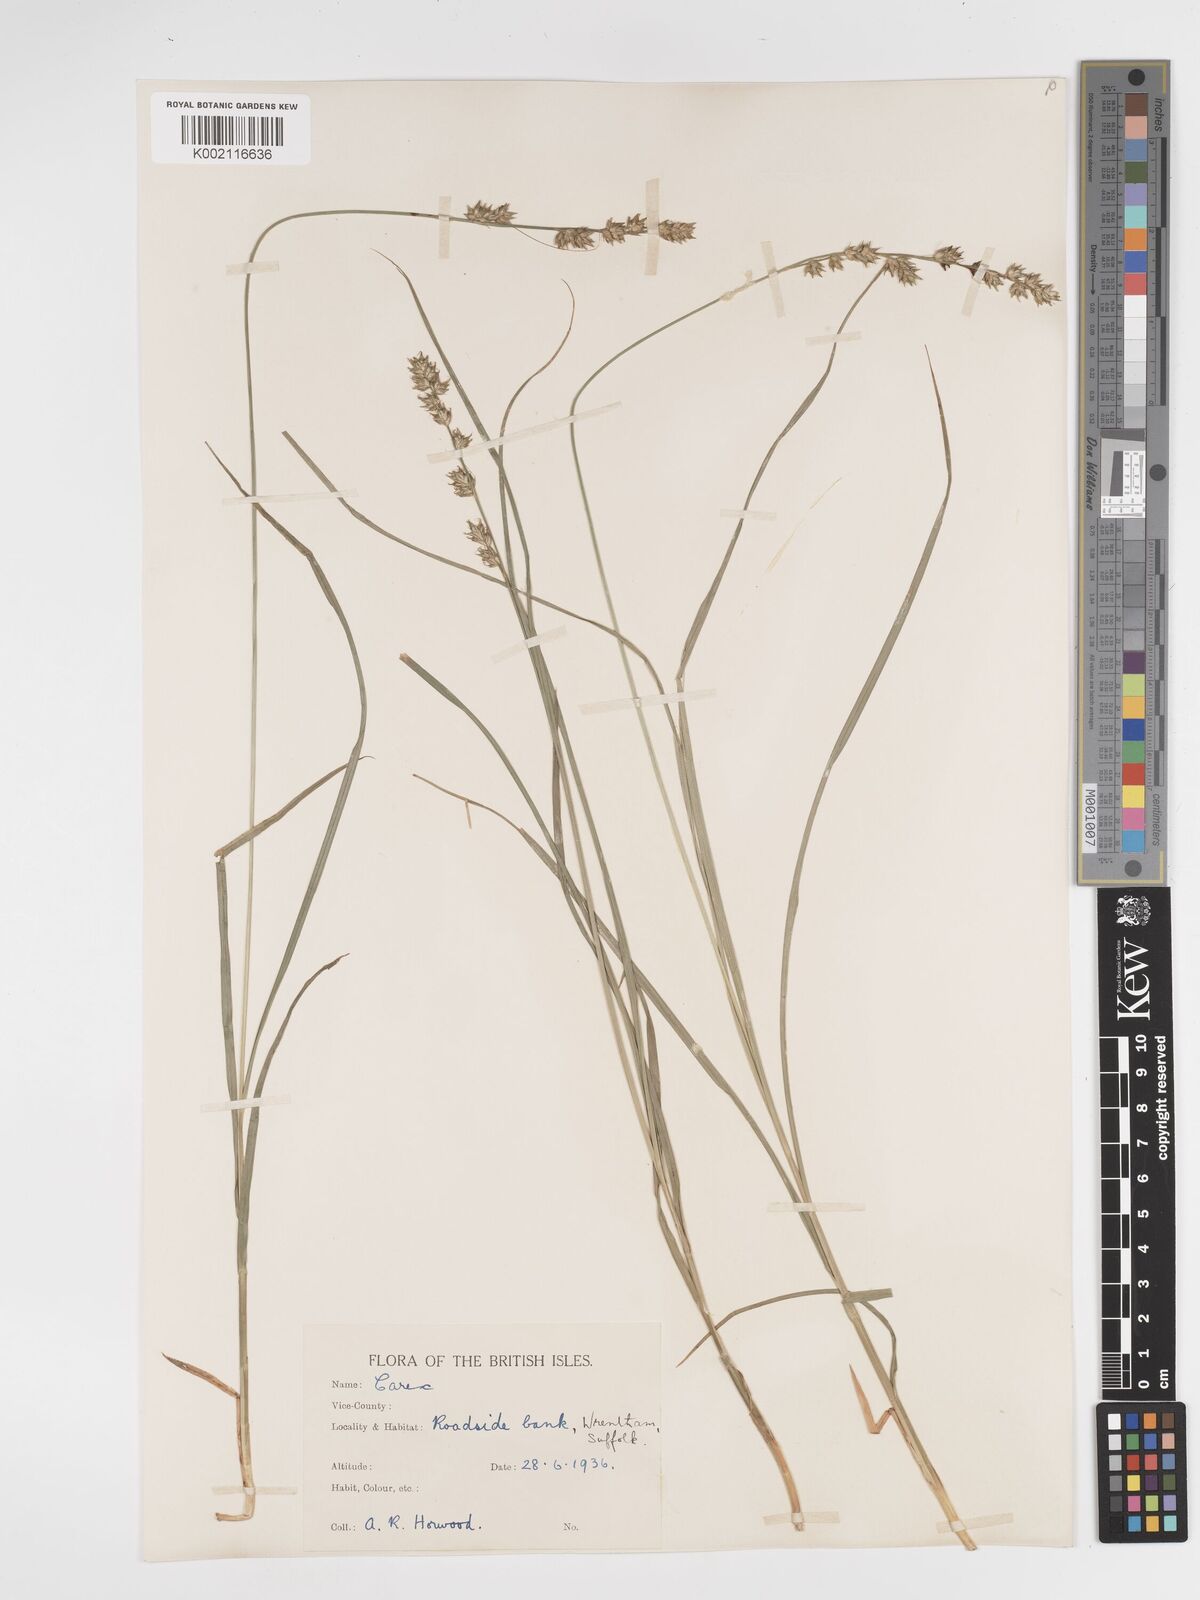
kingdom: Plantae
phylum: Tracheophyta
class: Liliopsida
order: Poales
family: Cyperaceae
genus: Carex
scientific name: Carex divulsa
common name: Grassland sedge
